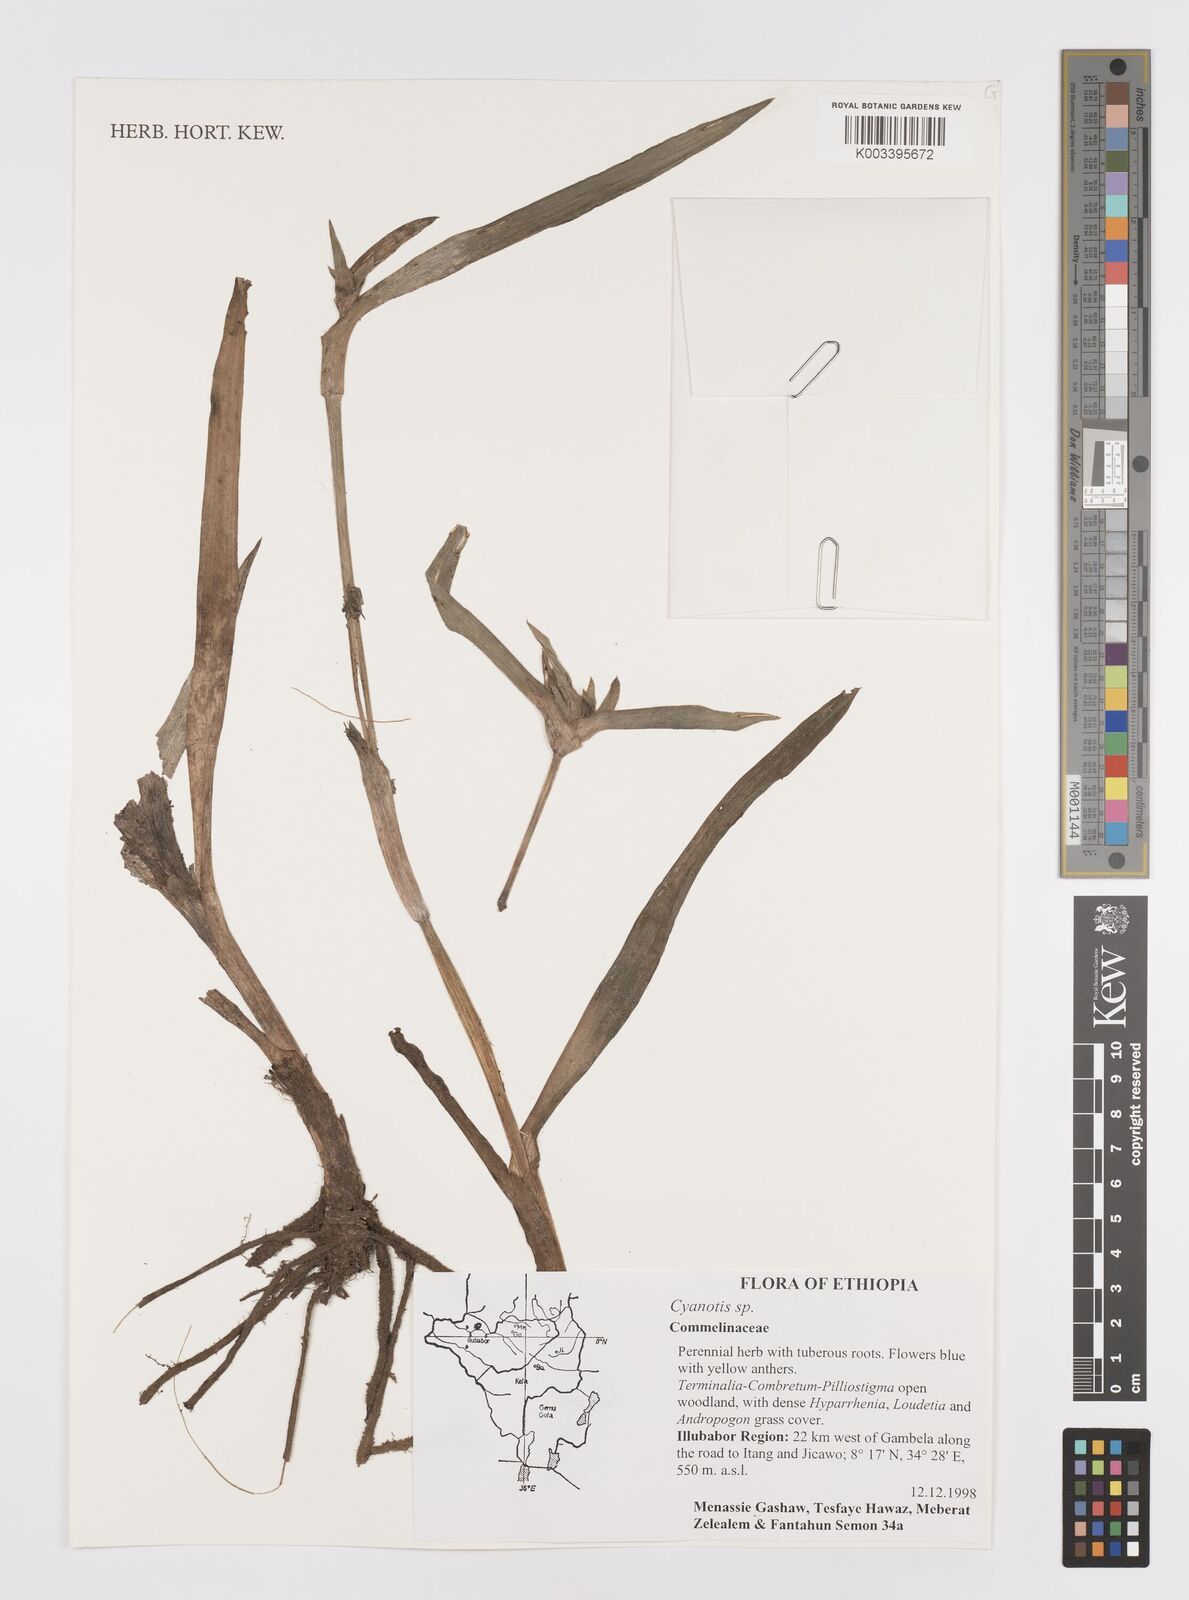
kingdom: Plantae
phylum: Tracheophyta
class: Liliopsida
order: Commelinales
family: Commelinaceae
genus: Cyanotis
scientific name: Cyanotis
